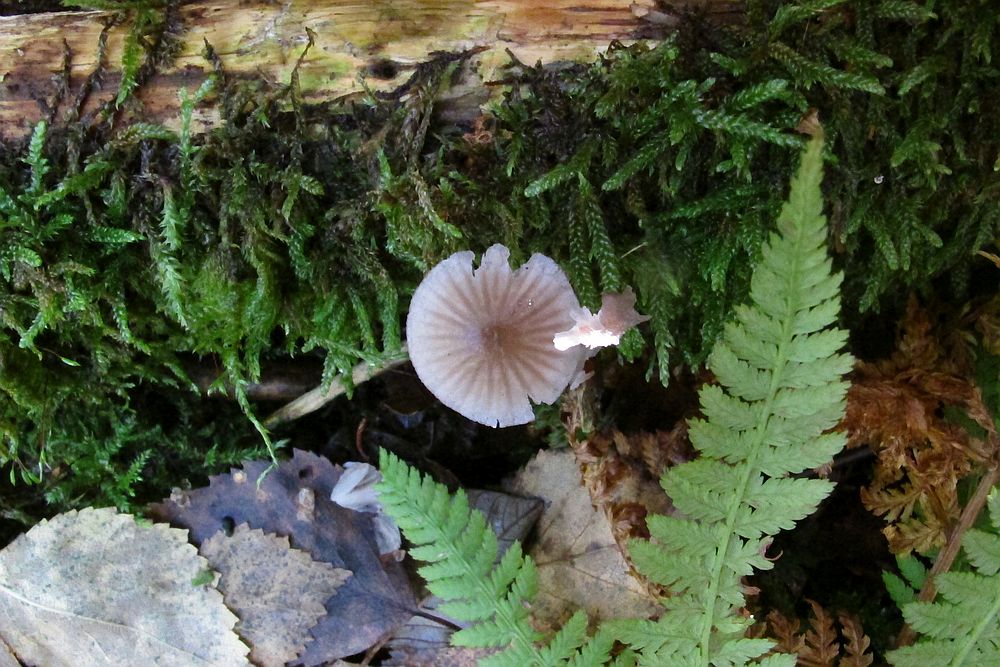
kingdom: Fungi
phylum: Basidiomycota
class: Agaricomycetes
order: Agaricales
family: Mycenaceae
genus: Mycena
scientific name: Mycena rubromarginata
